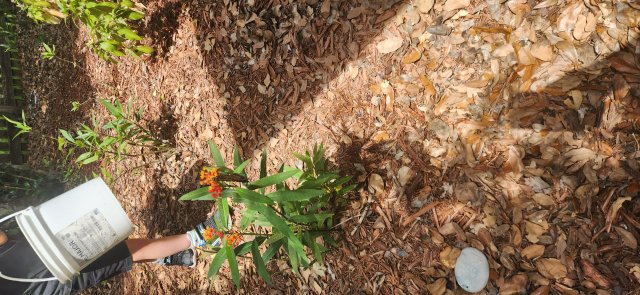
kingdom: Animalia
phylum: Arthropoda
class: Insecta
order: Lepidoptera
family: Nymphalidae
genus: Danaus
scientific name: Danaus plexippus
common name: Monarch
